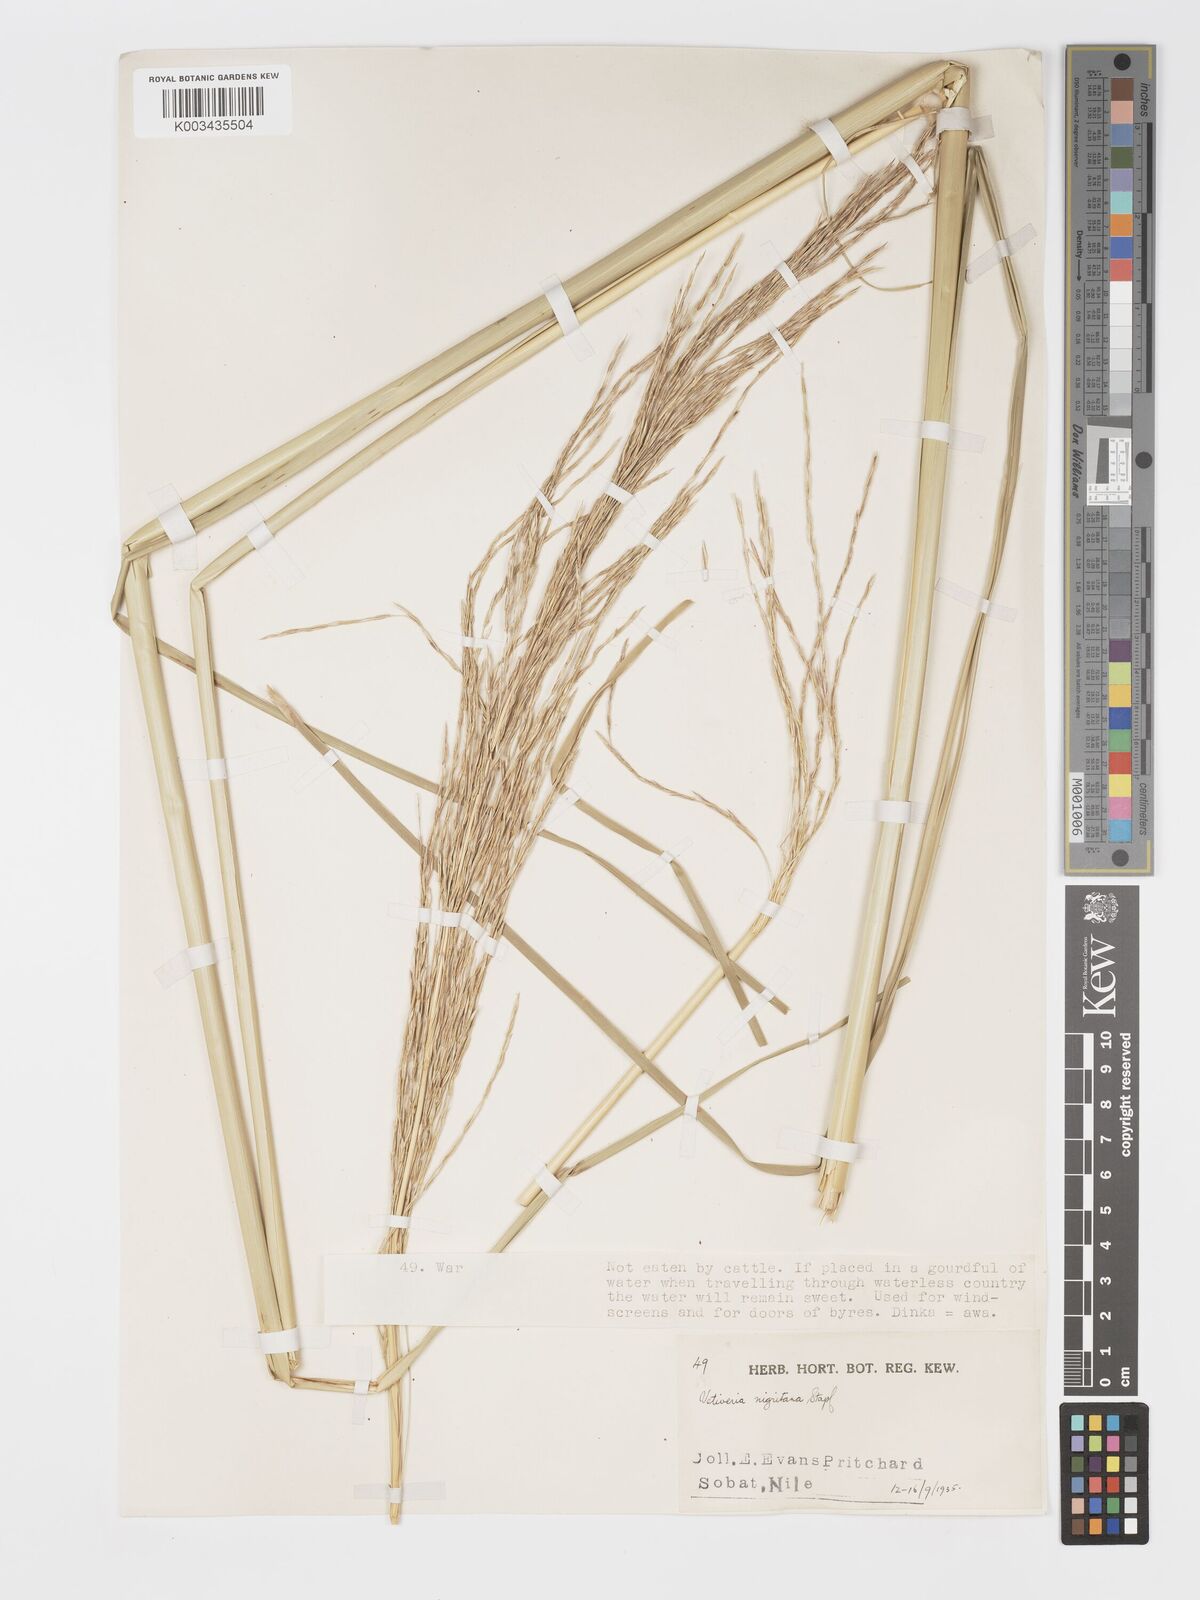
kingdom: Plantae
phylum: Tracheophyta
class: Liliopsida
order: Poales
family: Poaceae
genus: Chrysopogon
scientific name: Chrysopogon nigritanus
